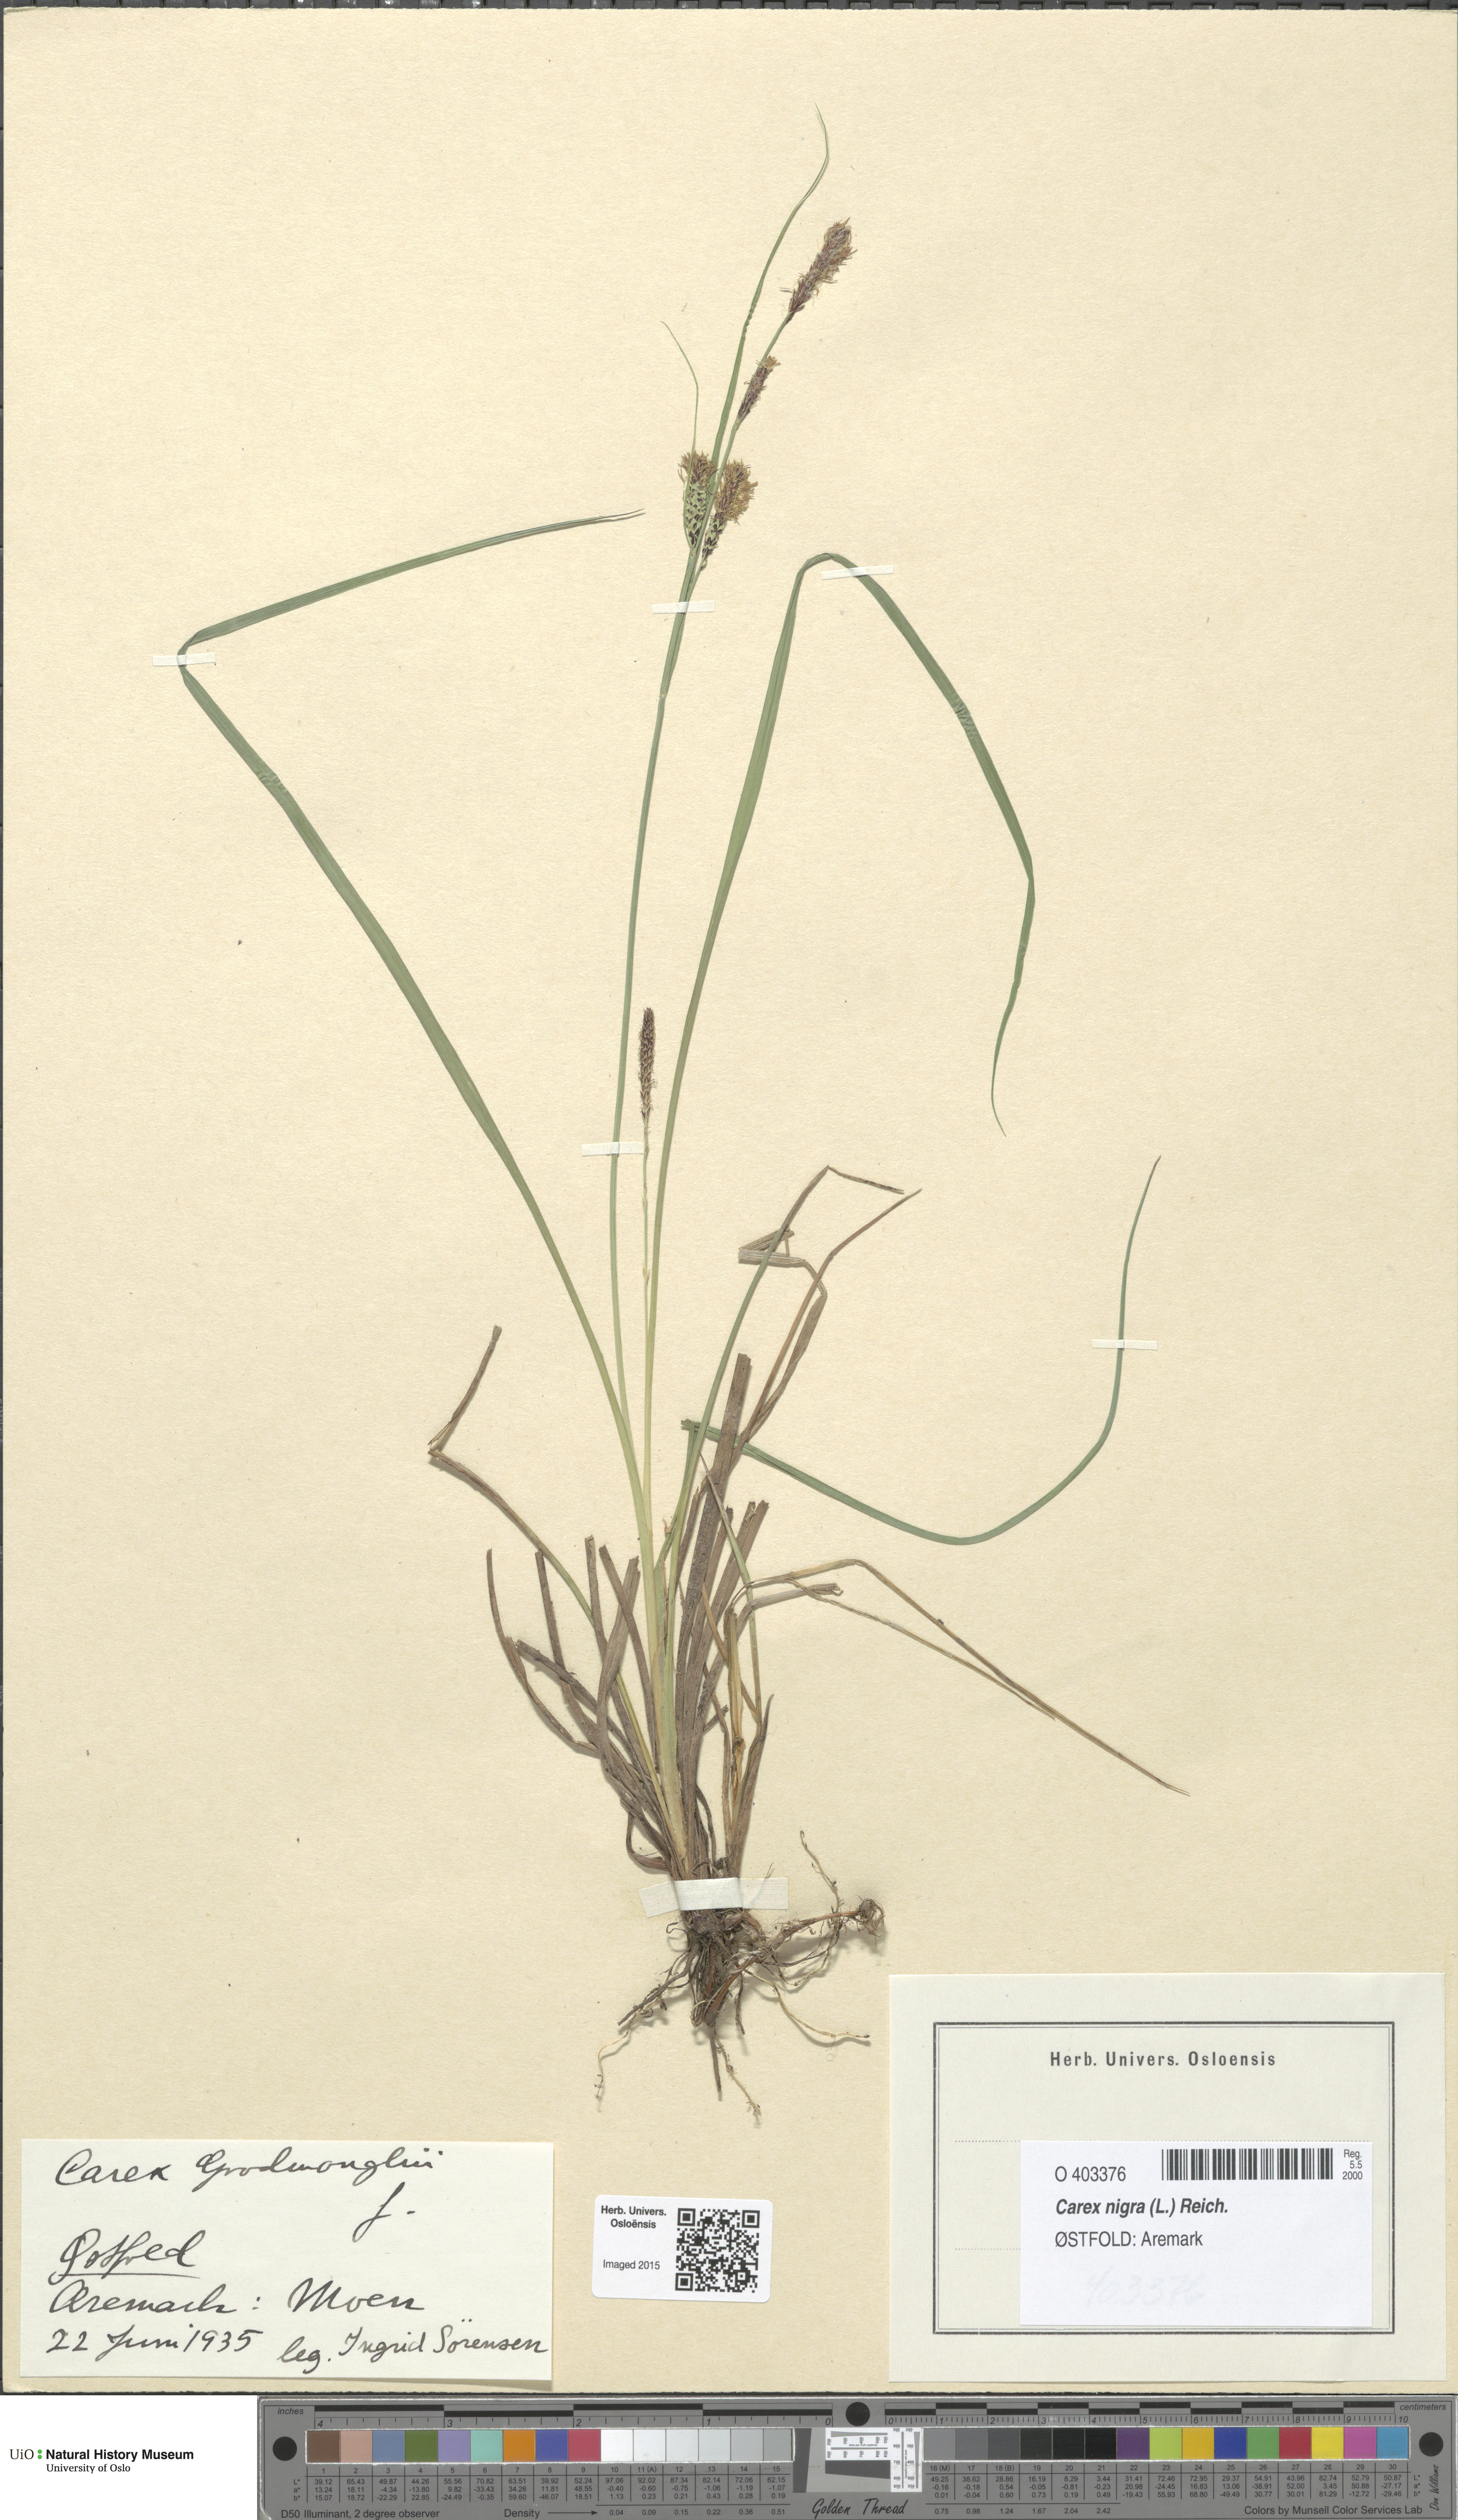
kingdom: Plantae
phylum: Tracheophyta
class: Liliopsida
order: Poales
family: Cyperaceae
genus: Carex
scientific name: Carex nigra
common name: Common sedge
